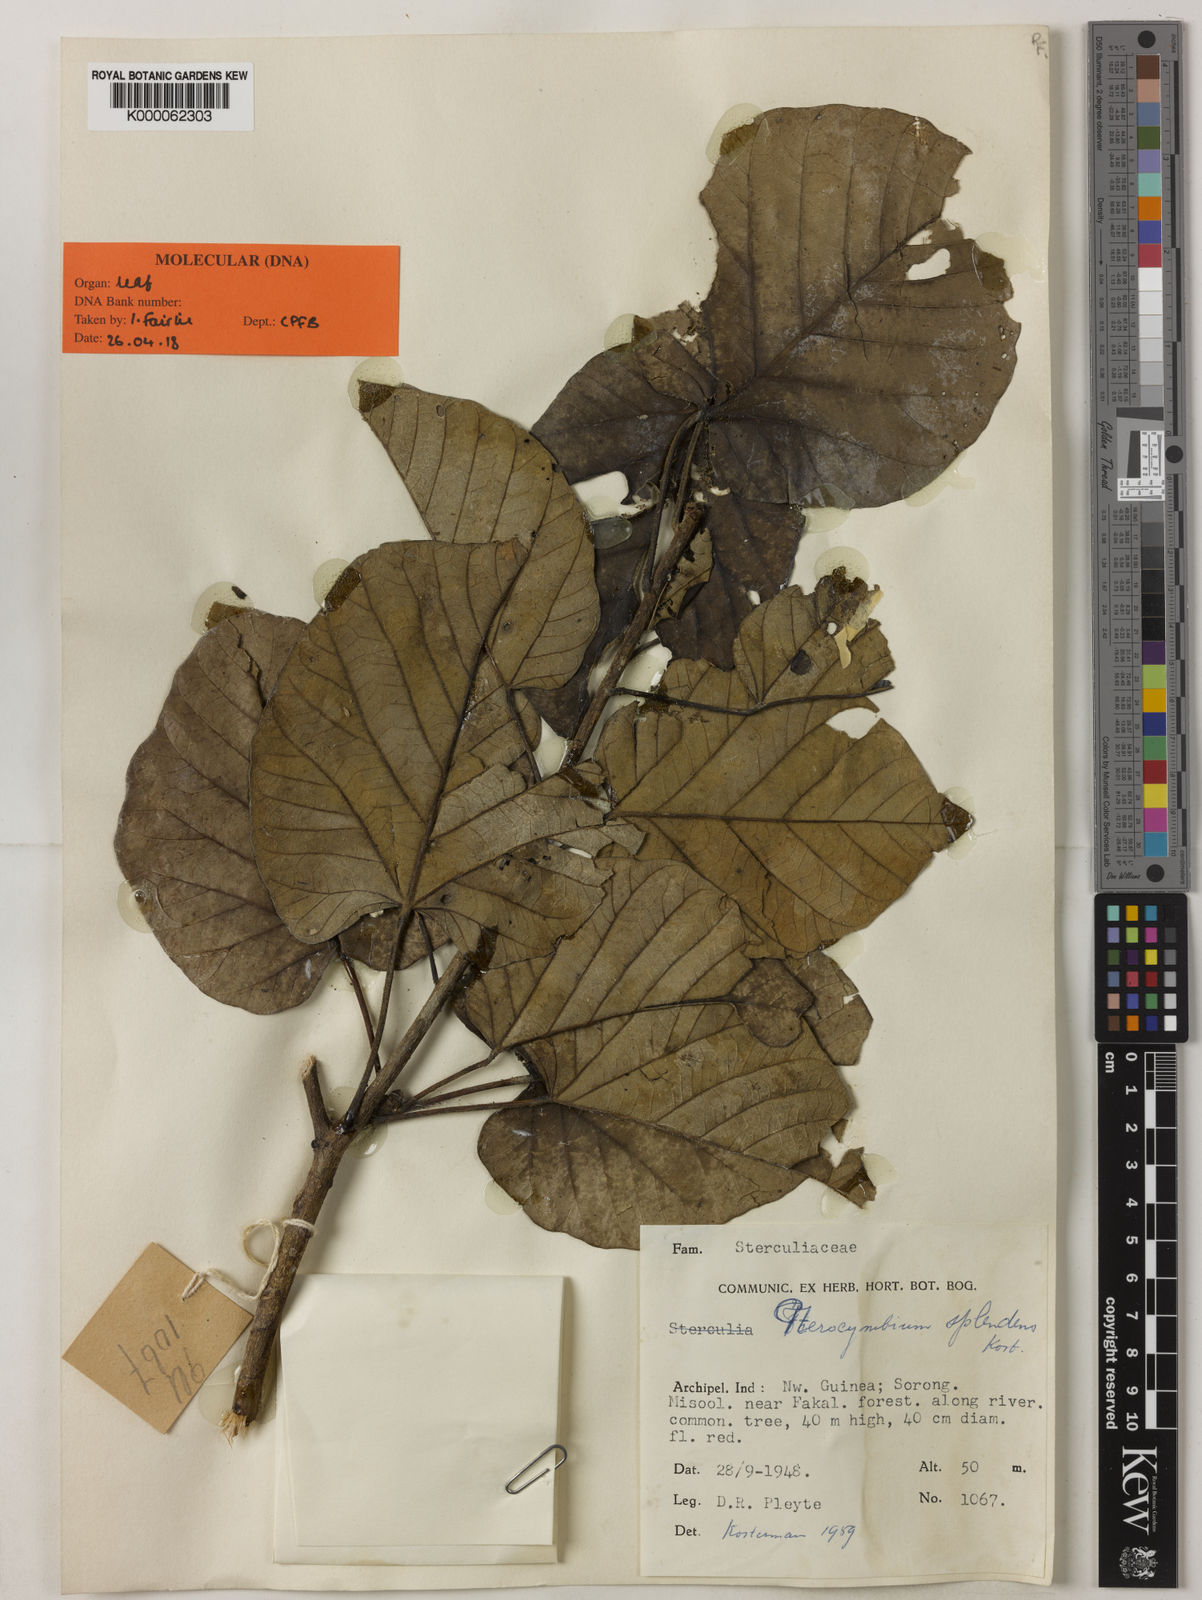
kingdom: Plantae
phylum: Tracheophyta
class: Magnoliopsida
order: Malvales
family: Malvaceae
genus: Pterocymbium
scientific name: Pterocymbium splendens
